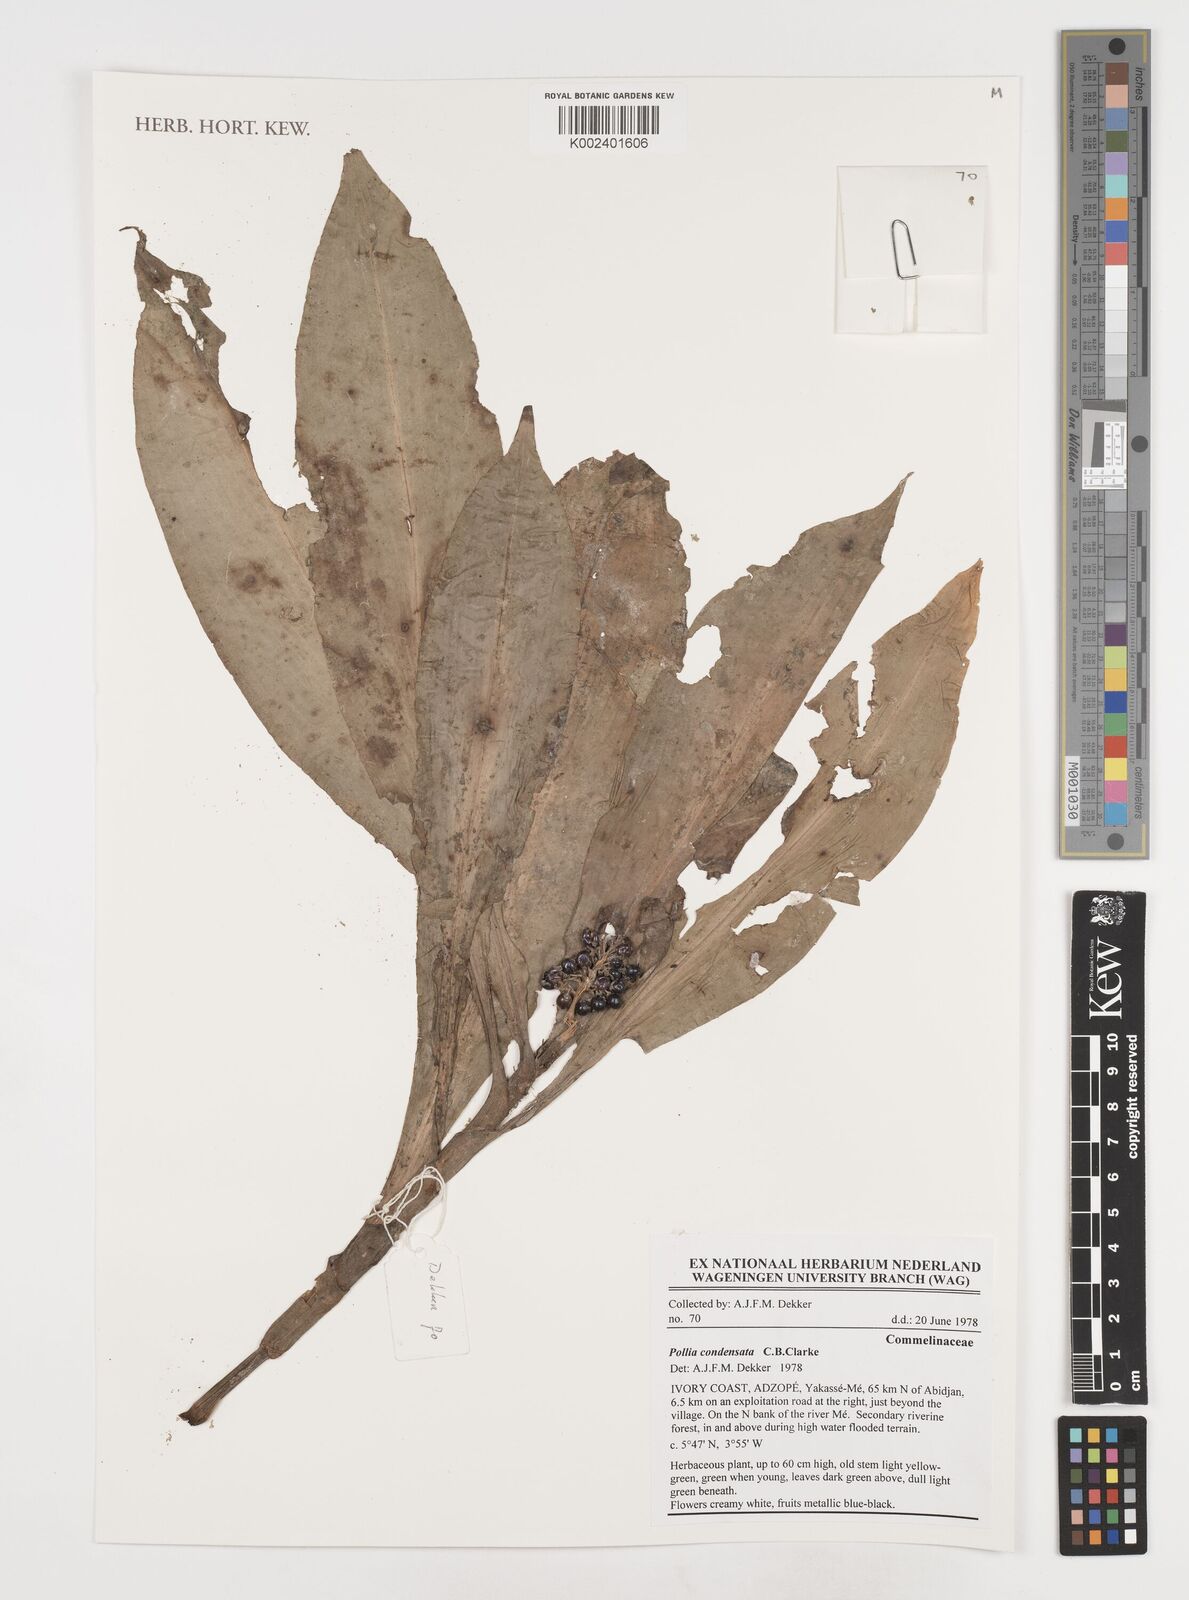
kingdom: Plantae
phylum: Tracheophyta
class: Liliopsida
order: Commelinales
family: Commelinaceae
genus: Pollia
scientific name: Pollia condensata
